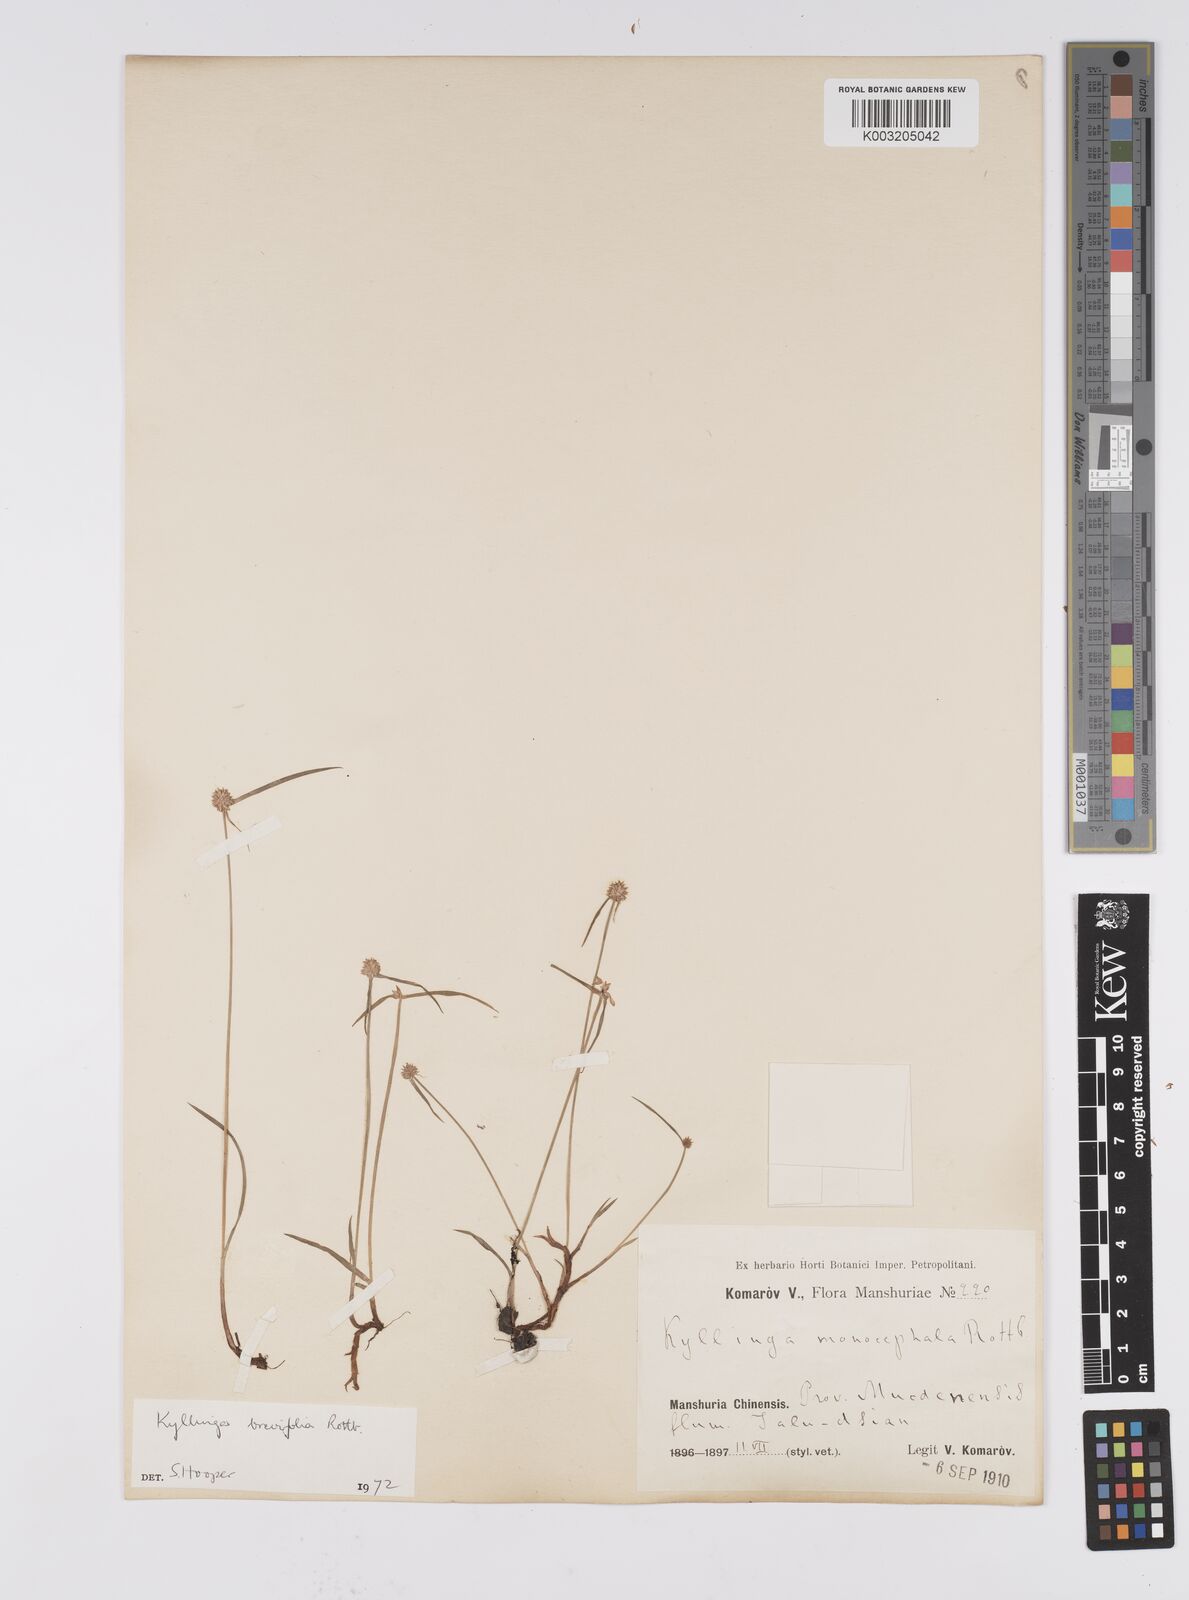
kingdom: Plantae
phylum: Tracheophyta
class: Liliopsida
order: Poales
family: Cyperaceae
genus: Cyperus
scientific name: Cyperus brevifolius
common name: Globe kyllinga
